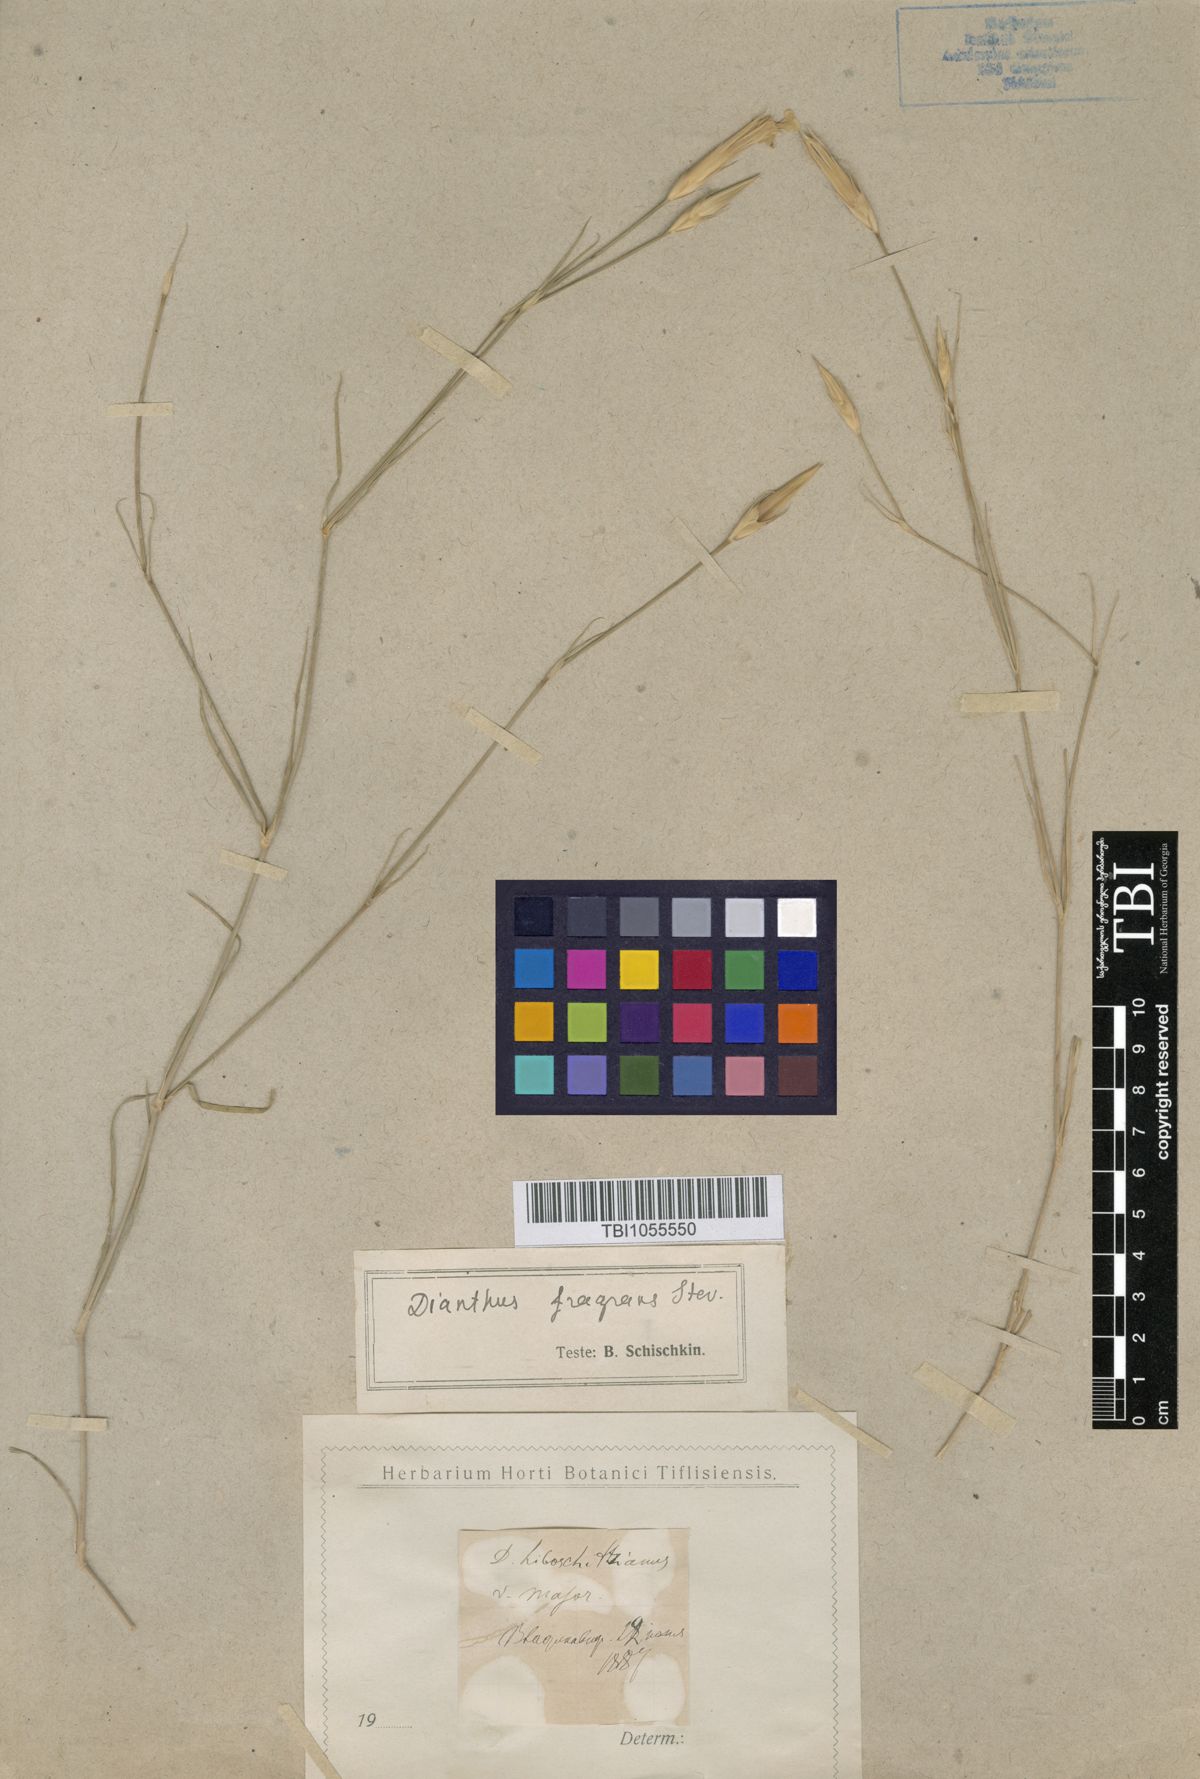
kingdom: Plantae
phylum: Tracheophyta
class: Magnoliopsida
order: Caryophyllales
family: Caryophyllaceae
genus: Dianthus
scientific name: Dianthus
